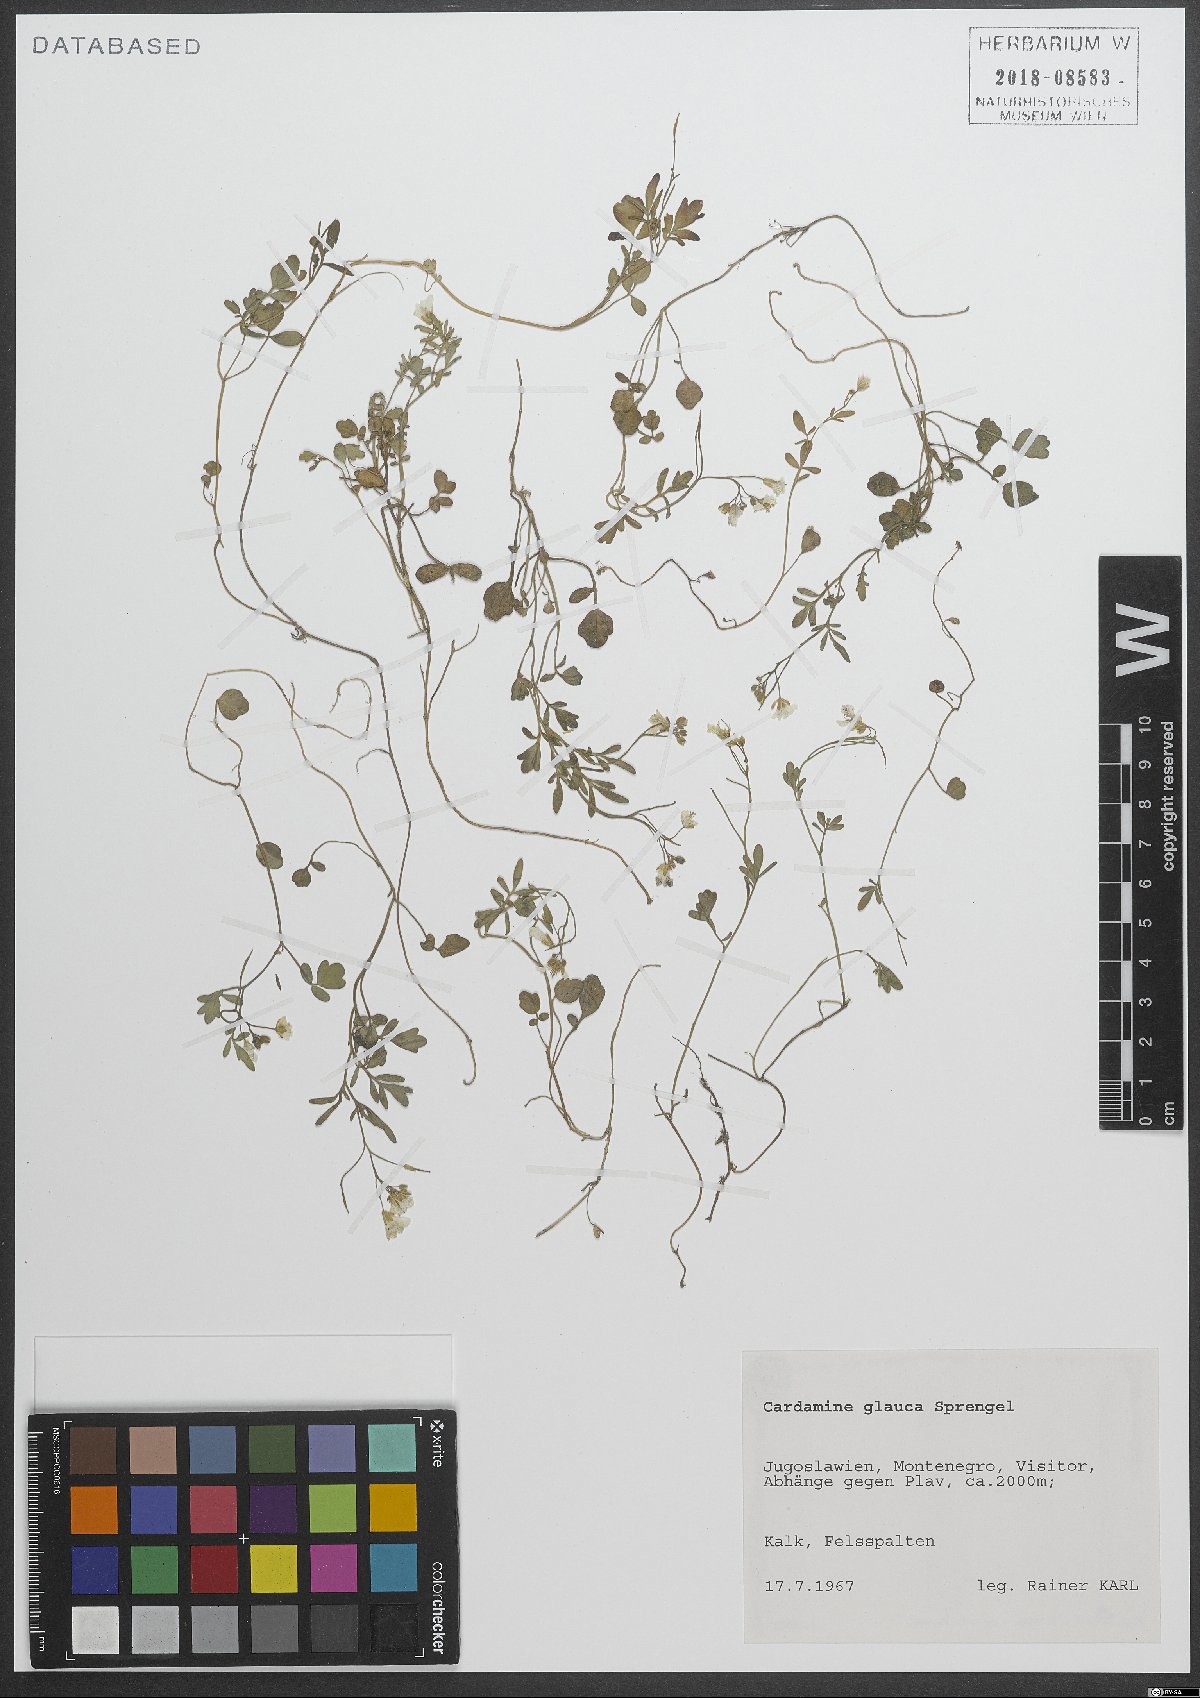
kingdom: Plantae
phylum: Tracheophyta
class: Magnoliopsida
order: Brassicales
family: Brassicaceae
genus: Cardamine
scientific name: Cardamine glauca
